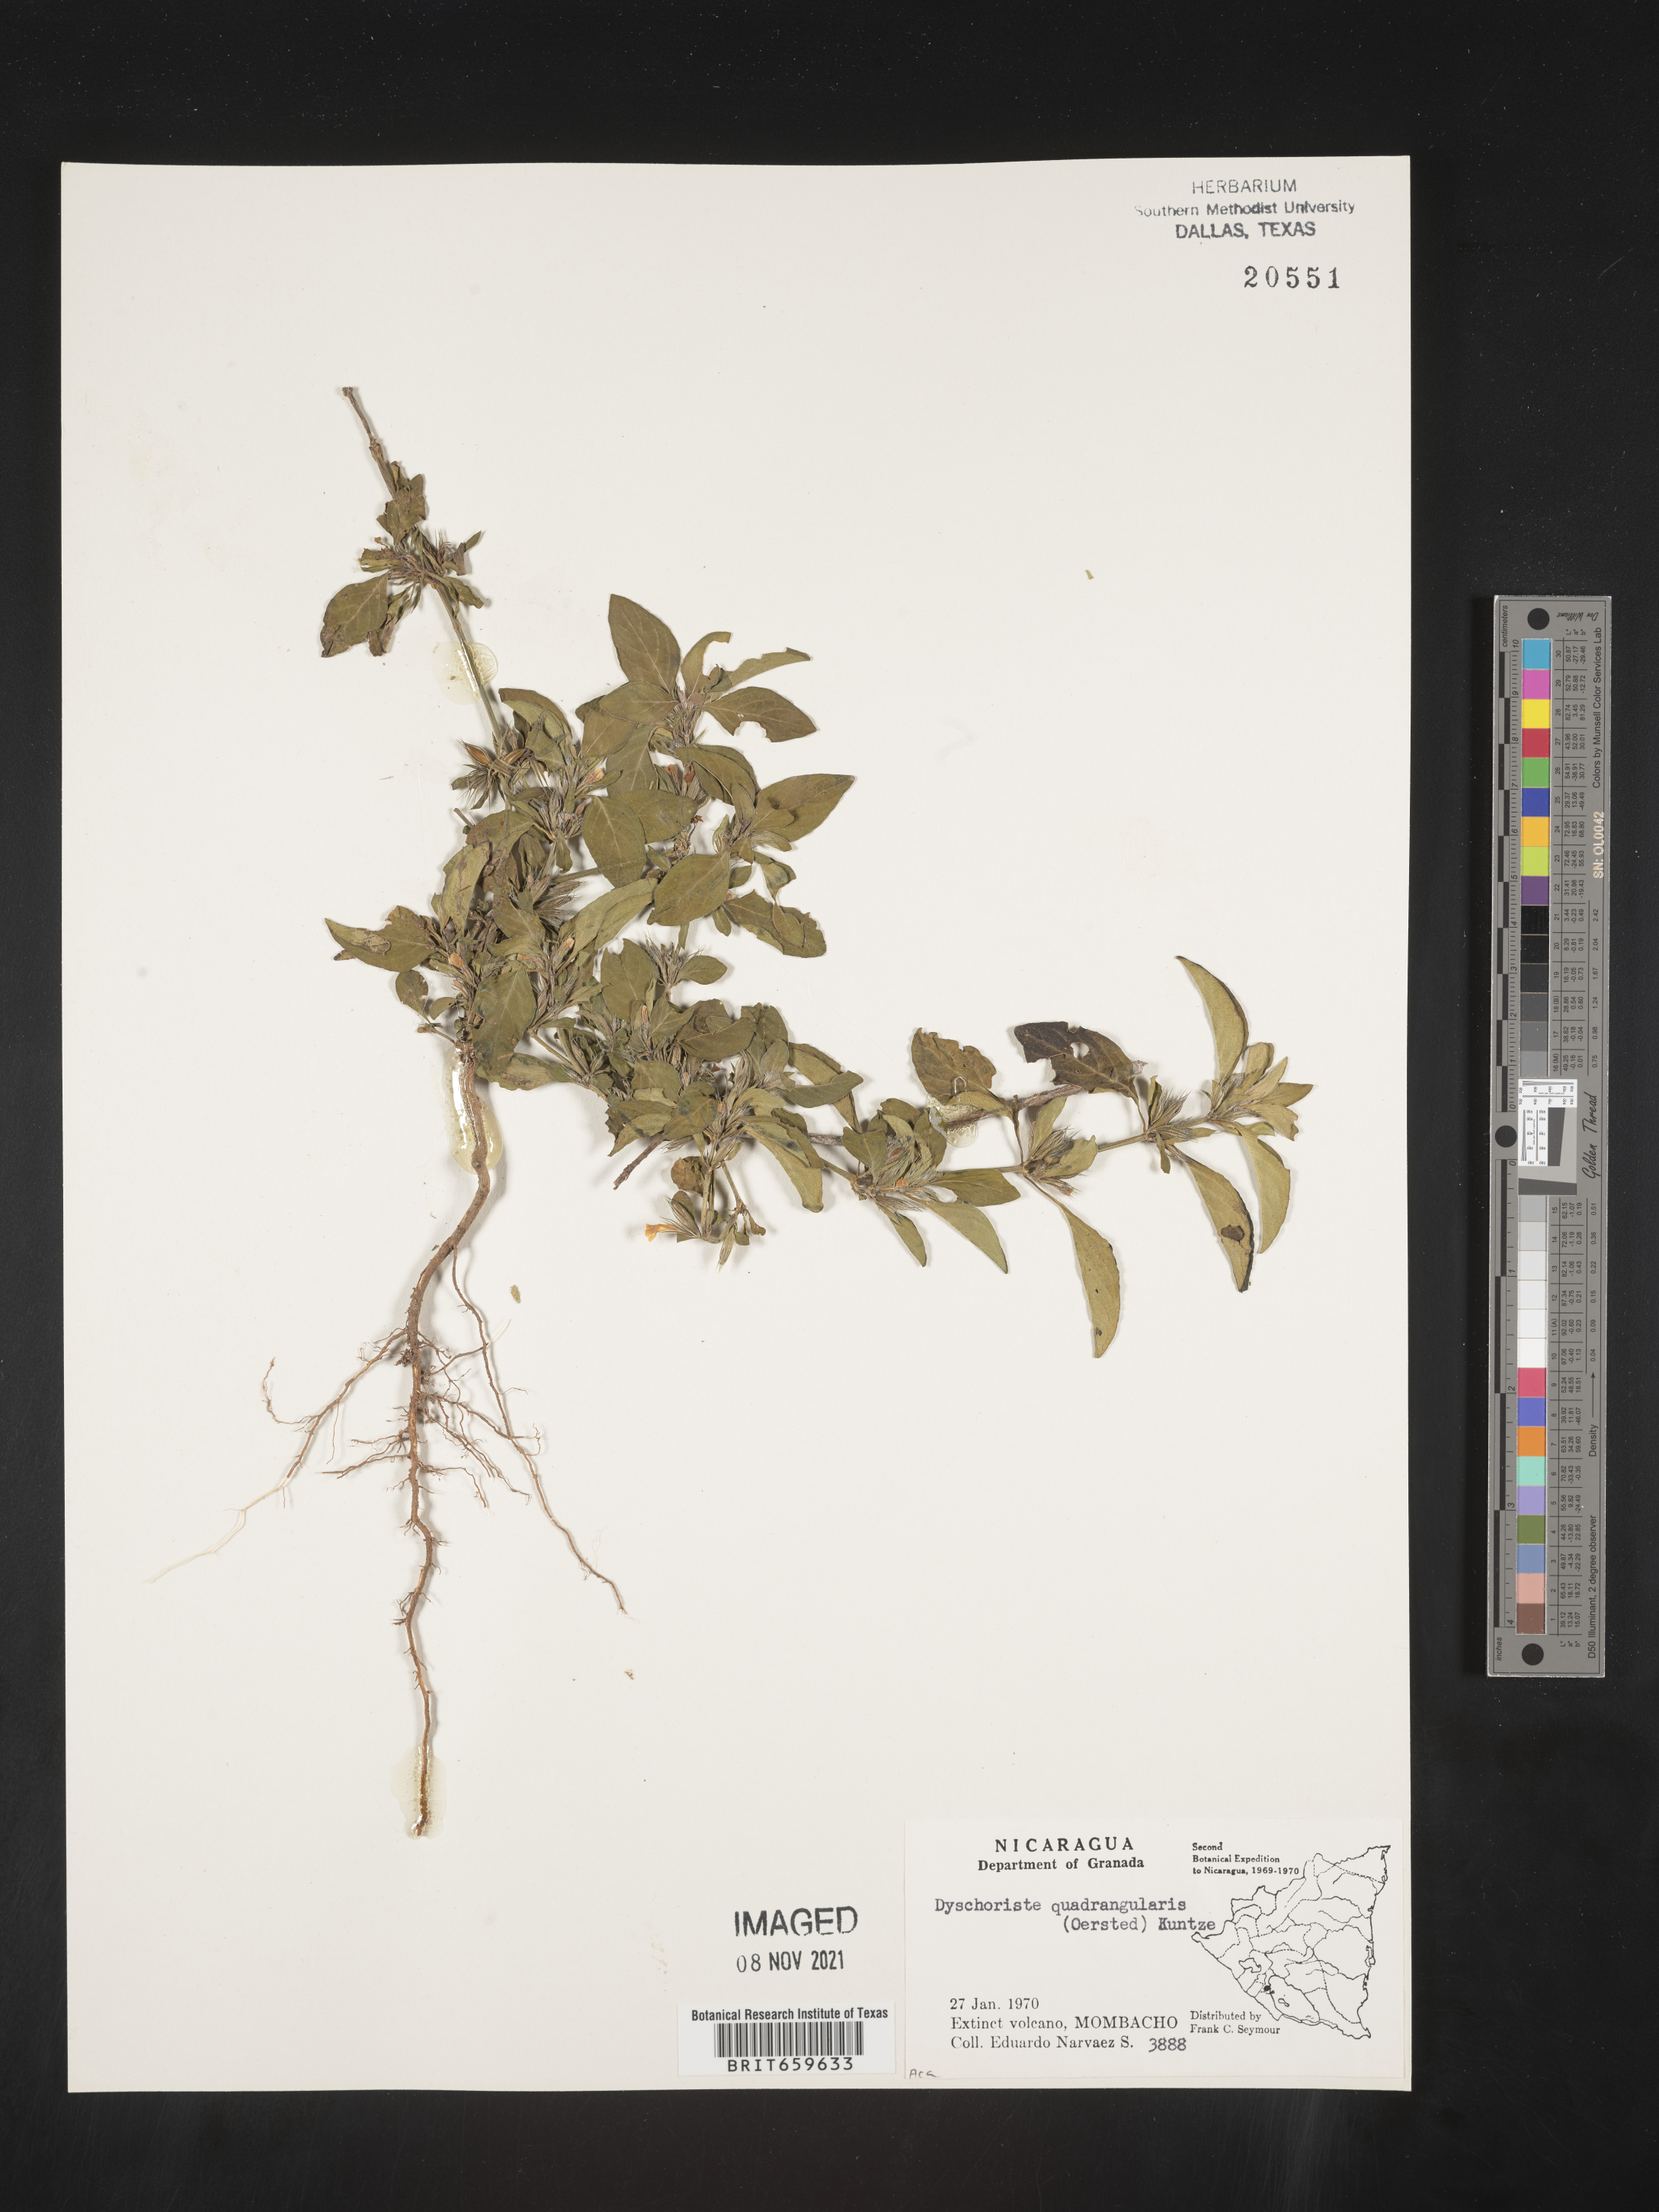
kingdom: Plantae
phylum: Tracheophyta
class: Magnoliopsida
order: Lamiales
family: Acanthaceae
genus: Dyschoriste
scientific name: Dyschoriste
